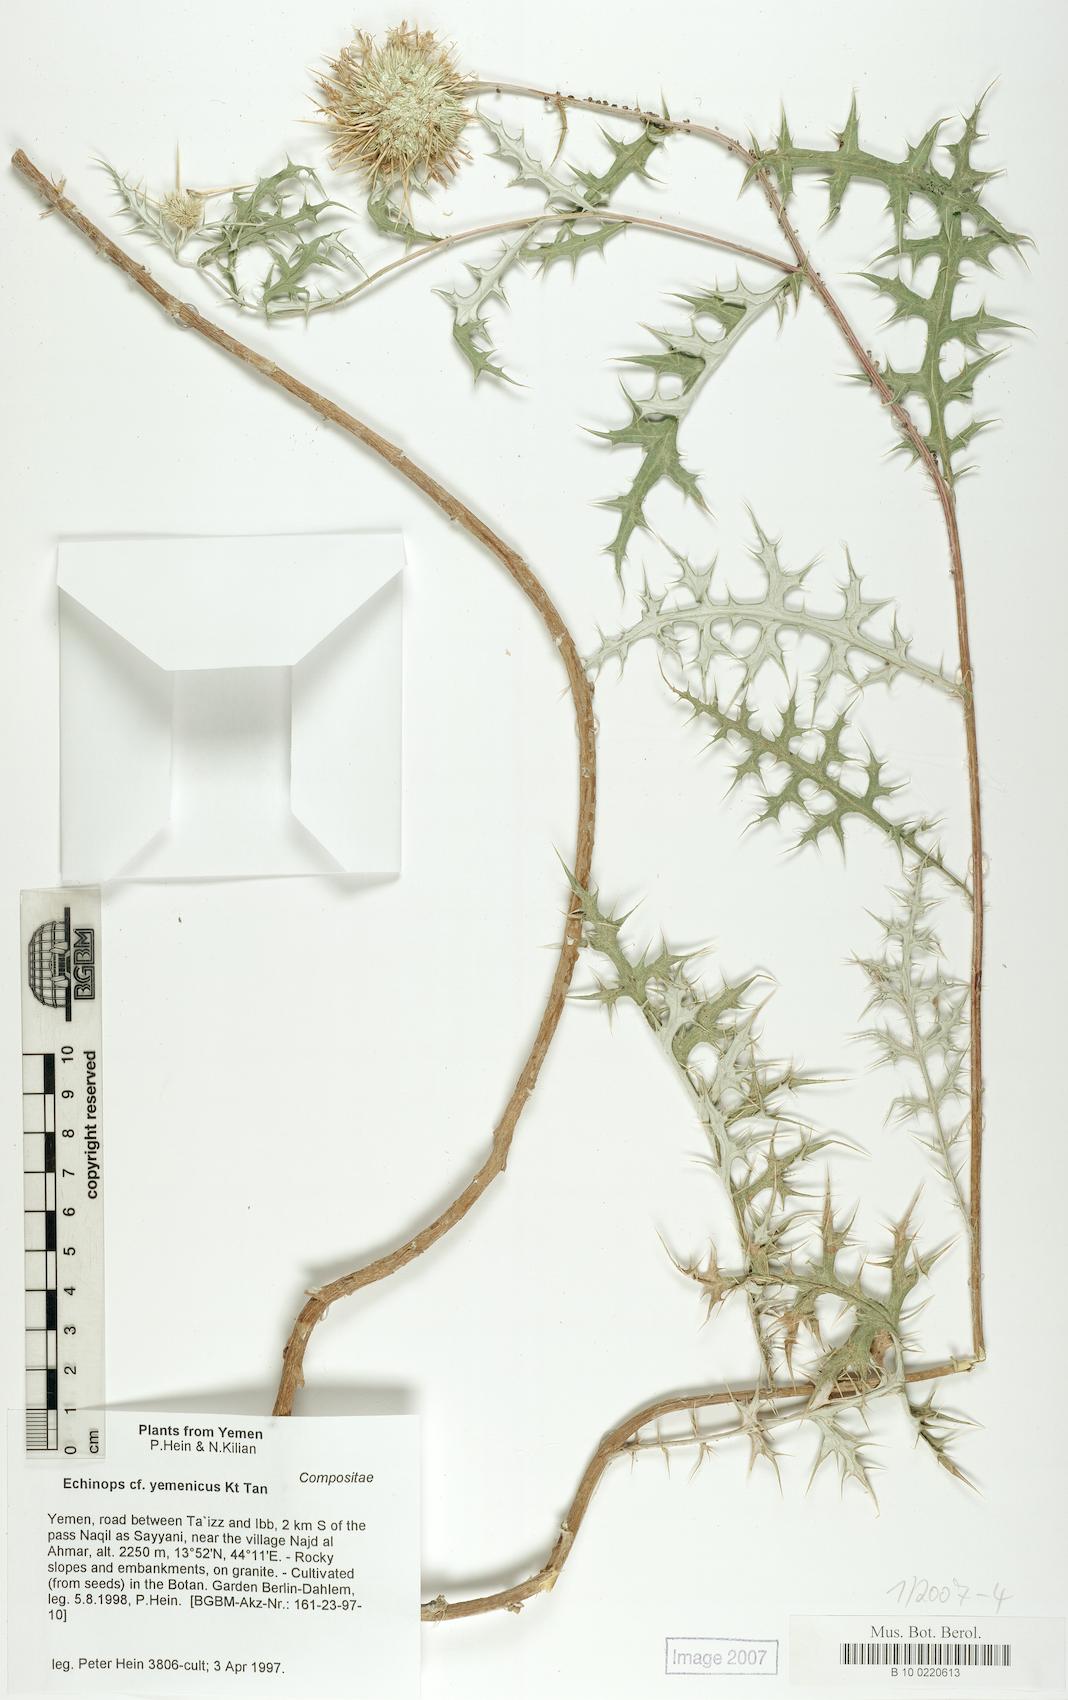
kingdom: Plantae
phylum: Tracheophyta
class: Magnoliopsida
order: Caryophyllales
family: Caryophyllaceae
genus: Stellaria
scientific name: Stellaria apetala
